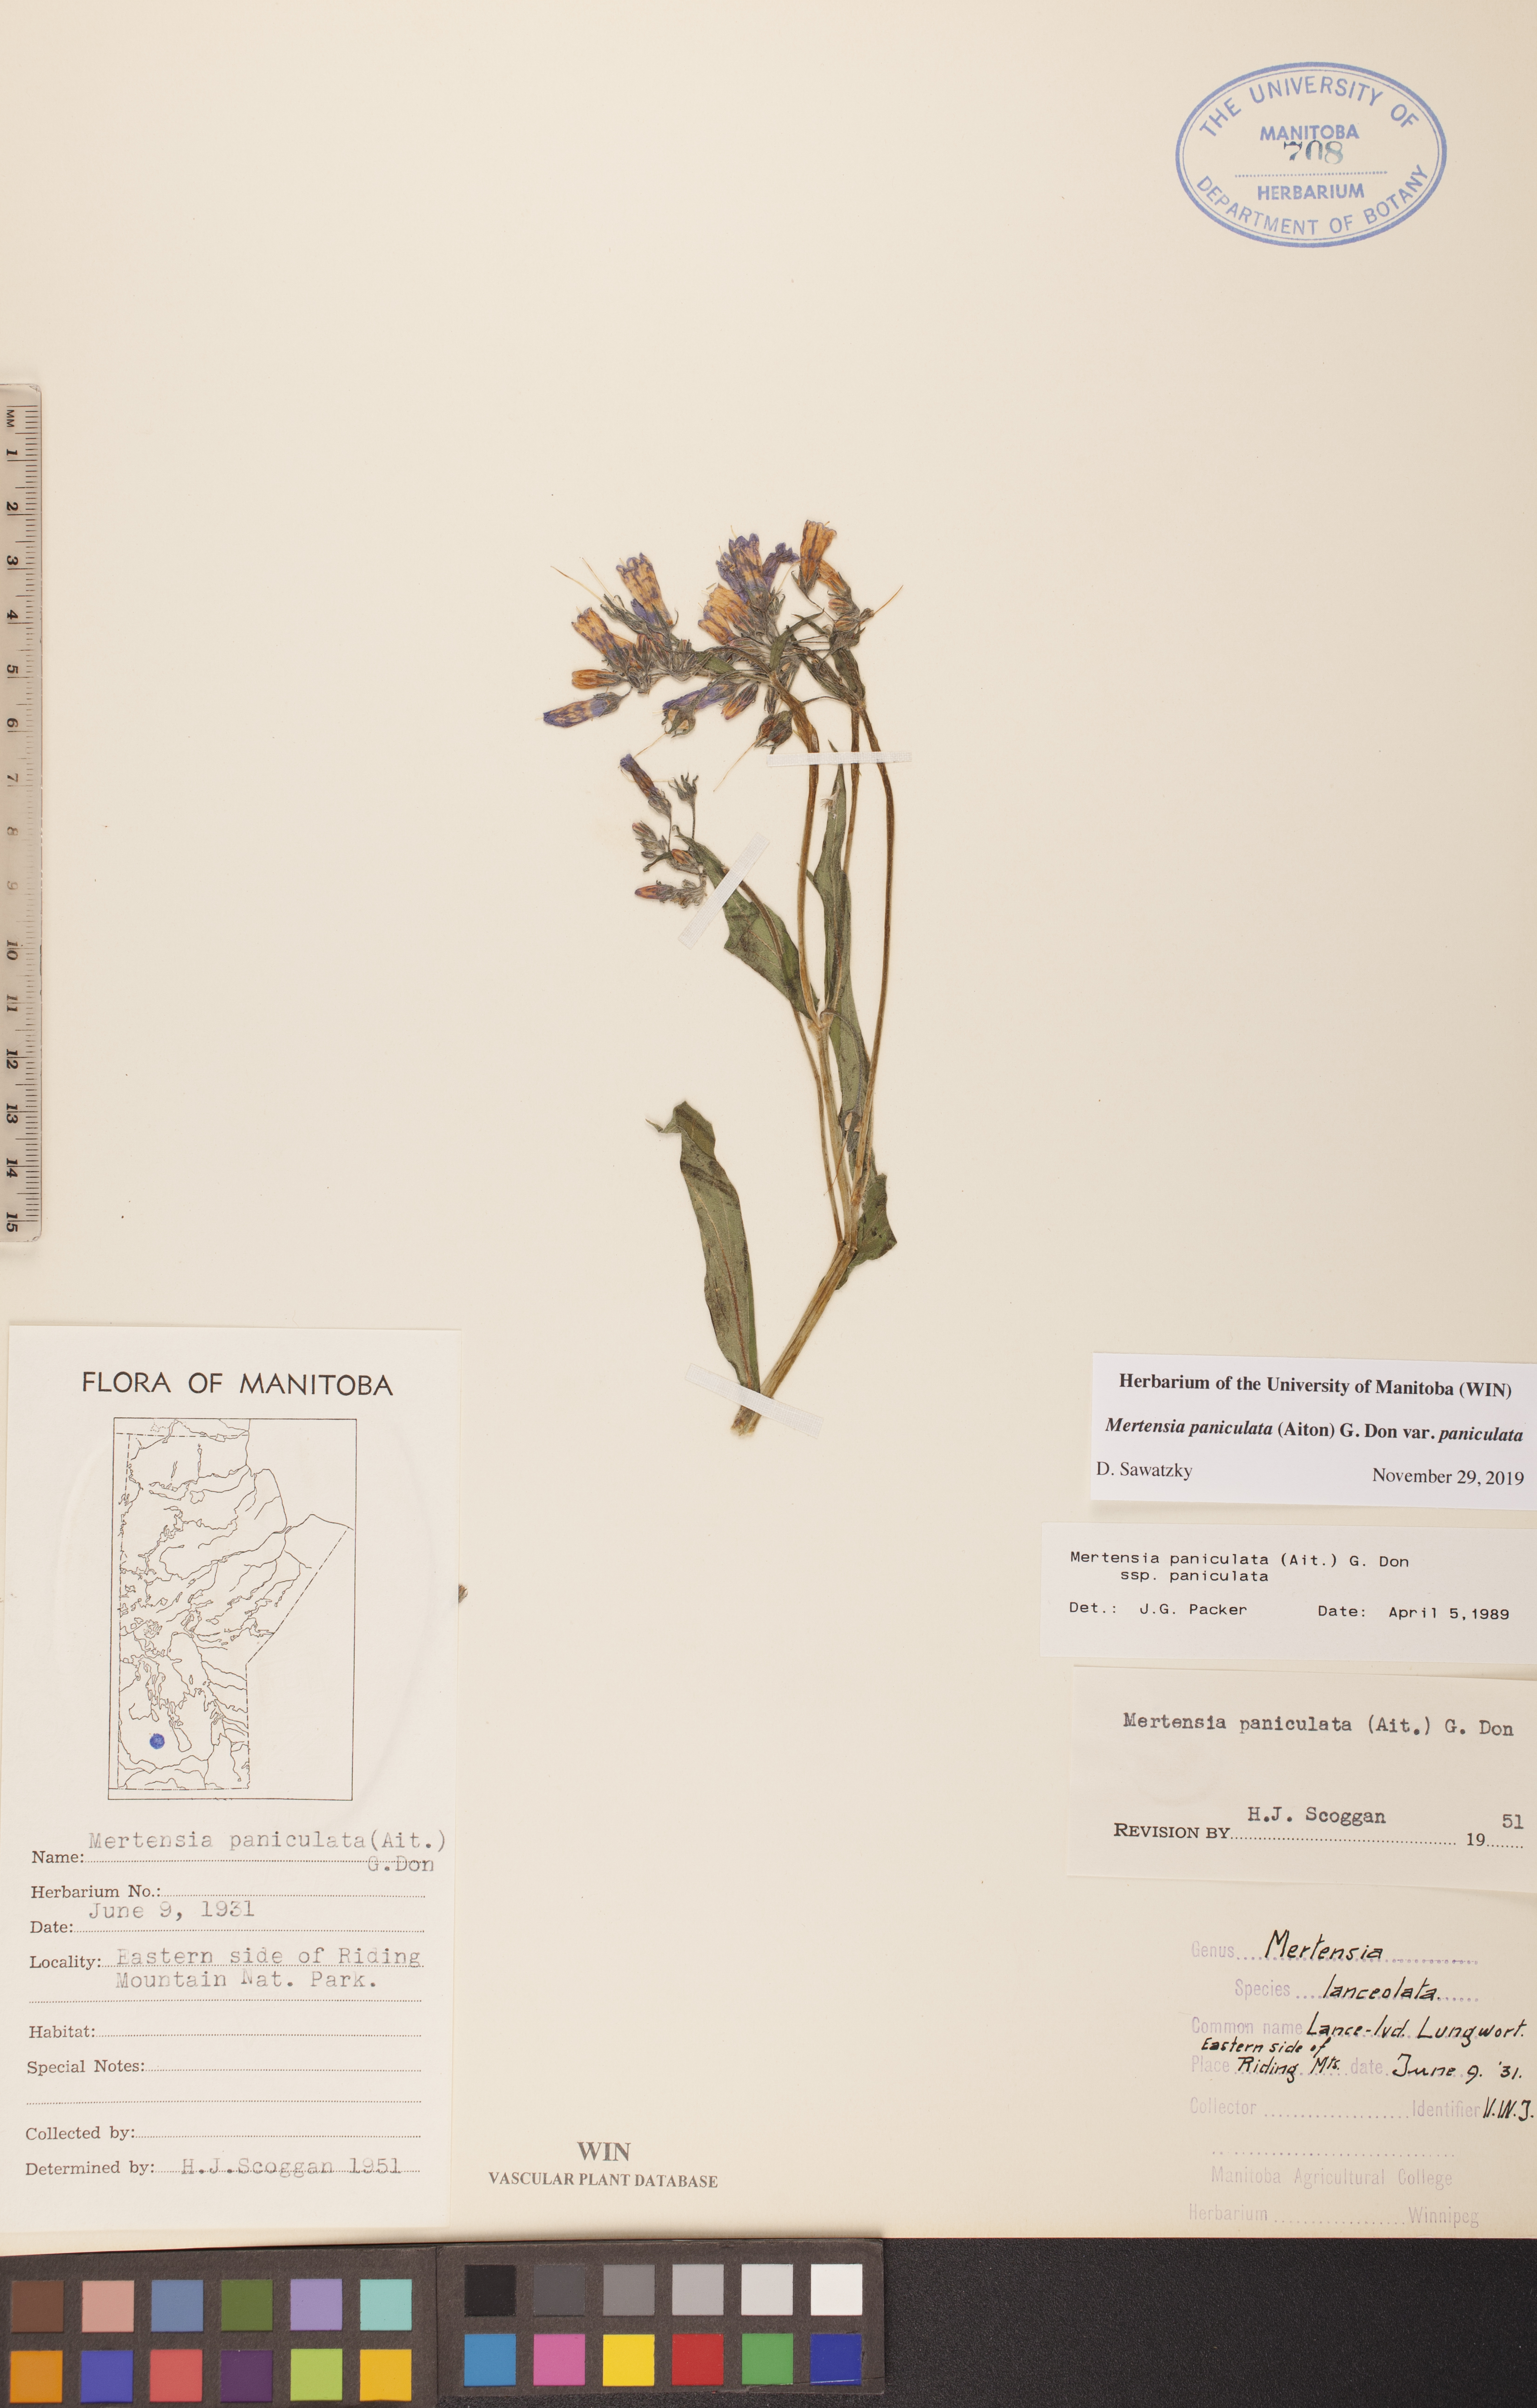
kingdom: Plantae
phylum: Tracheophyta
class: Magnoliopsida
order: Boraginales
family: Boraginaceae
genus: Mertensia
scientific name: Mertensia paniculata
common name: Panicled bluebells
